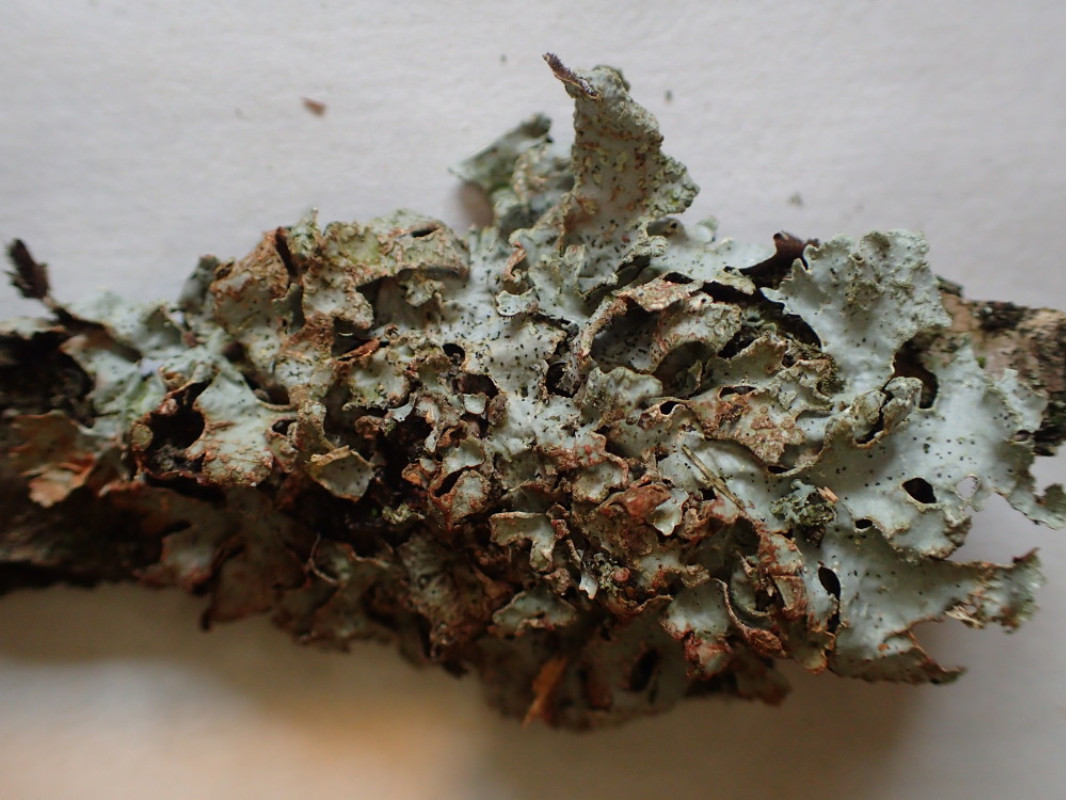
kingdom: Fungi
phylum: Ascomycota
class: Lecanoromycetes
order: Lecanorales
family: Parmeliaceae
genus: Parmelia
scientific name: Parmelia sulcata
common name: rynket skållav
